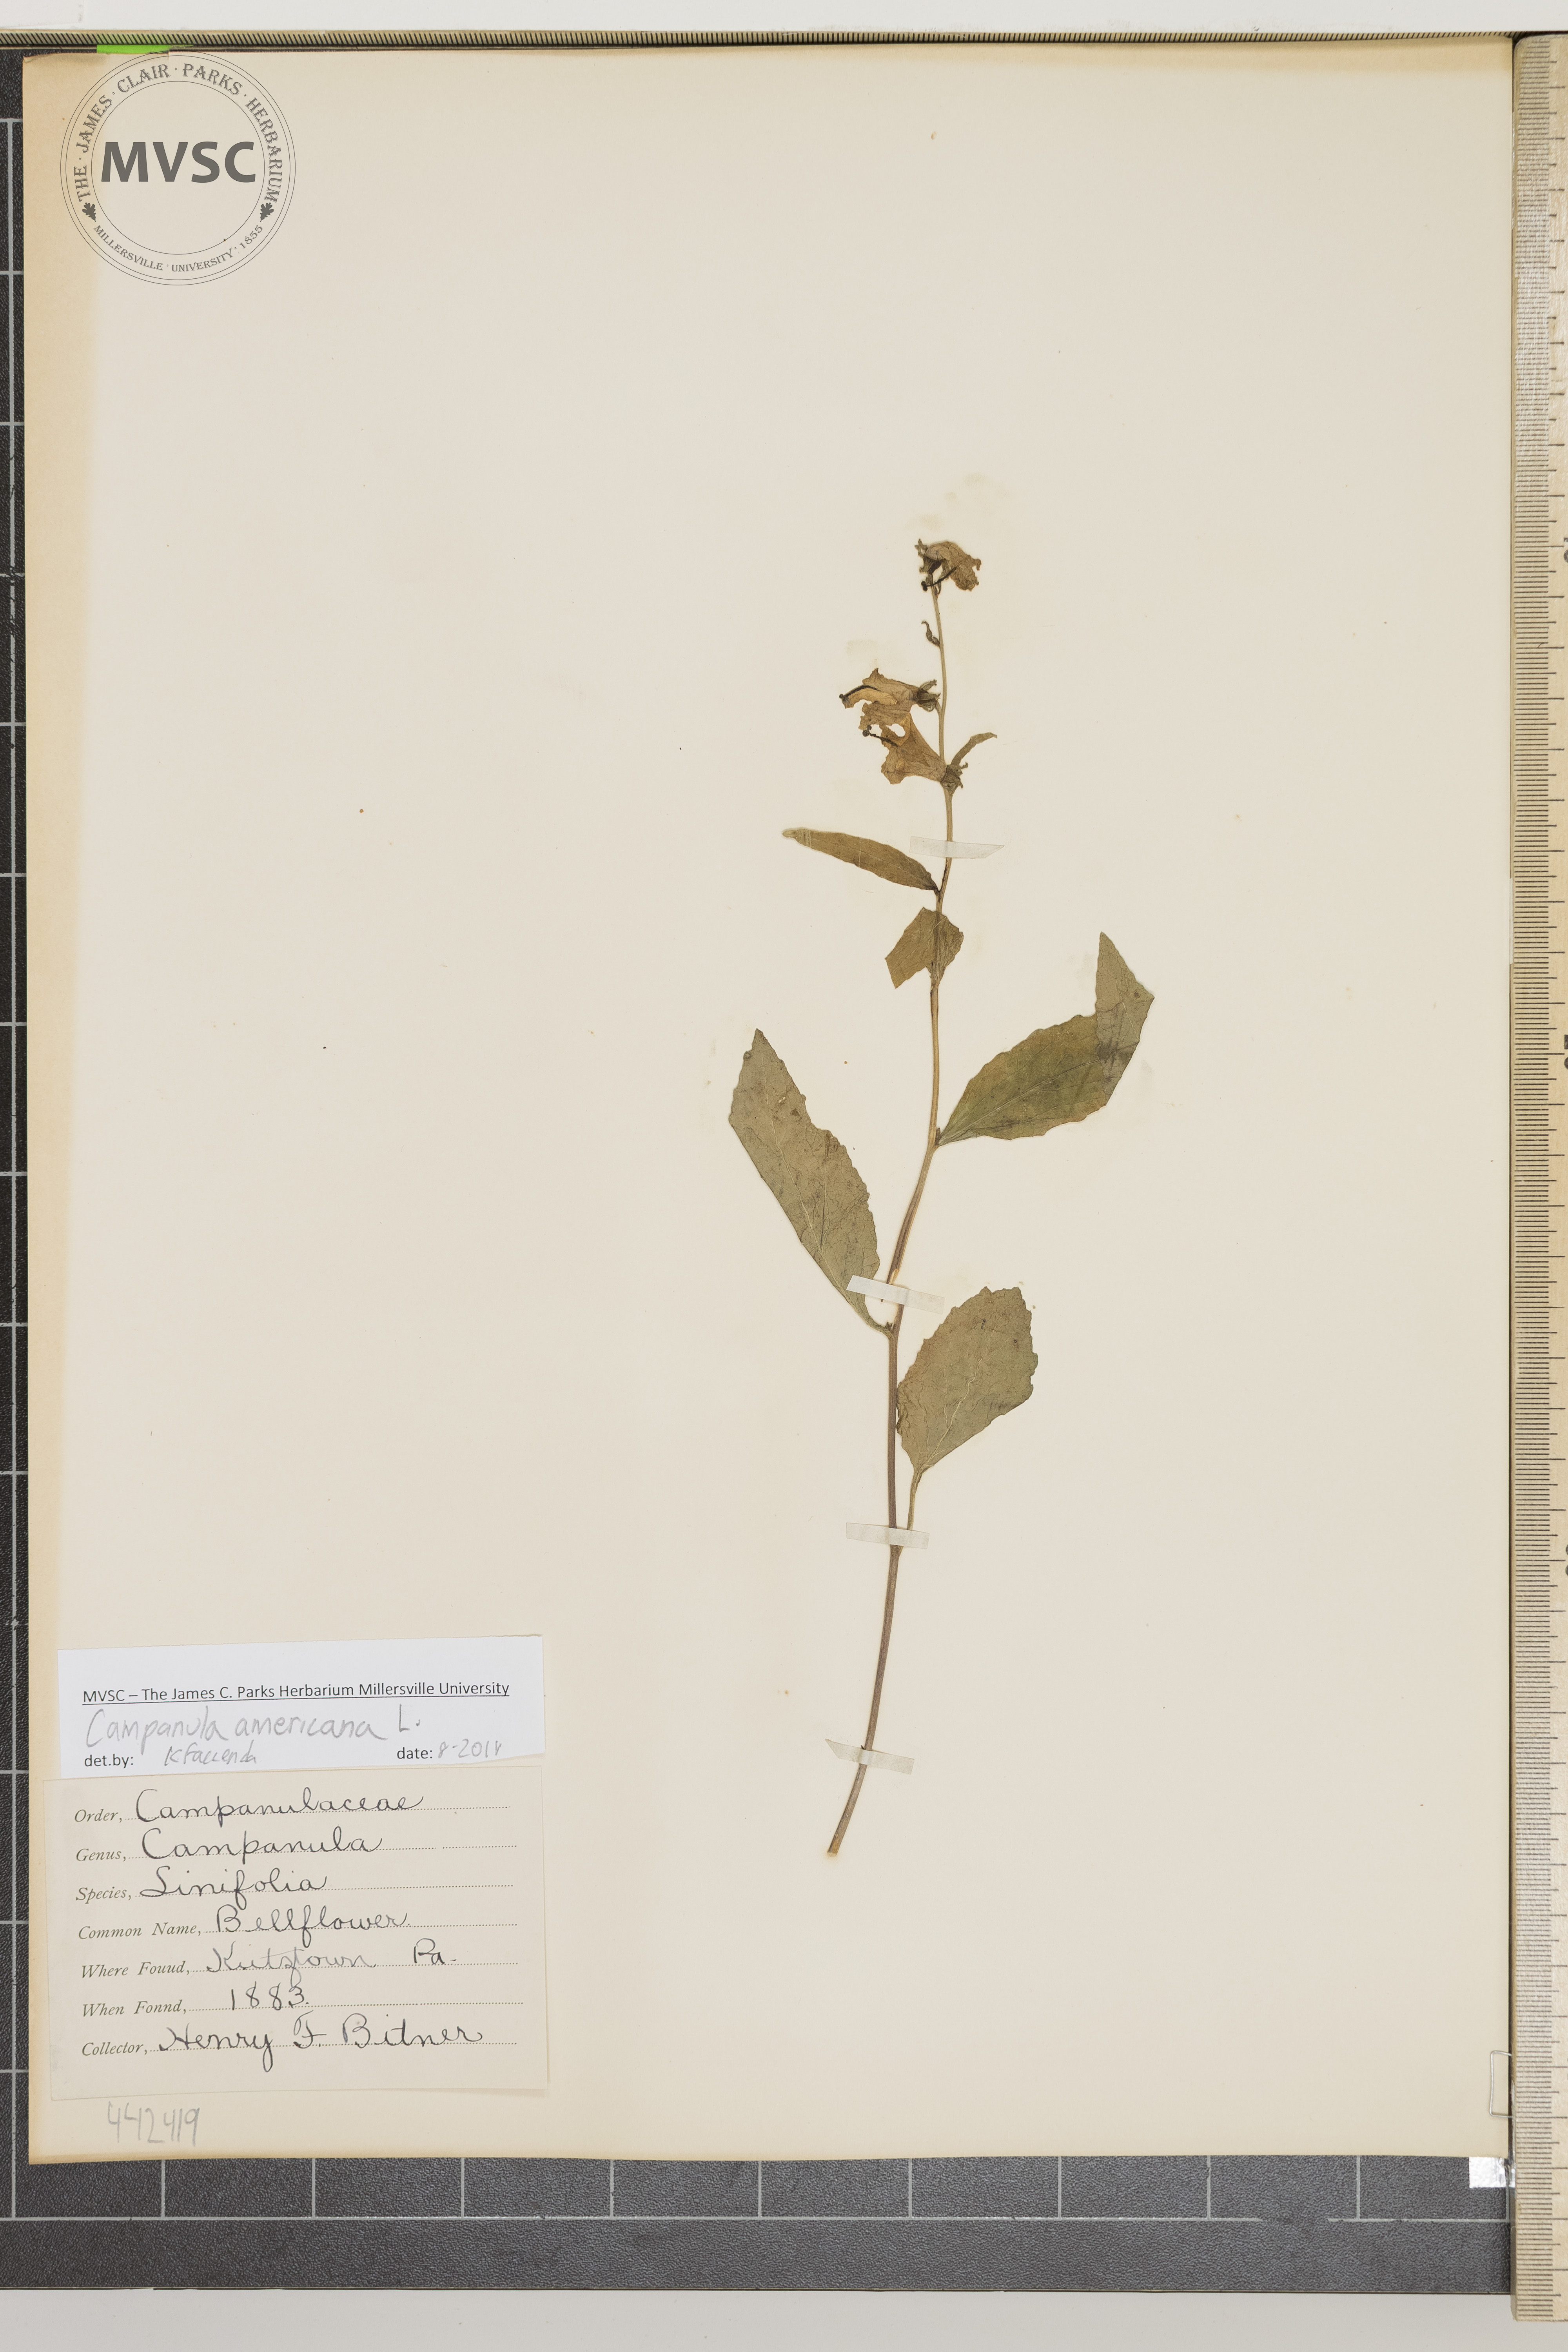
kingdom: Plantae
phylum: Tracheophyta
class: Magnoliopsida
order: Asterales
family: Campanulaceae
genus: Campanulastrum
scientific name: Campanulastrum americanum
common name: Bellflower
